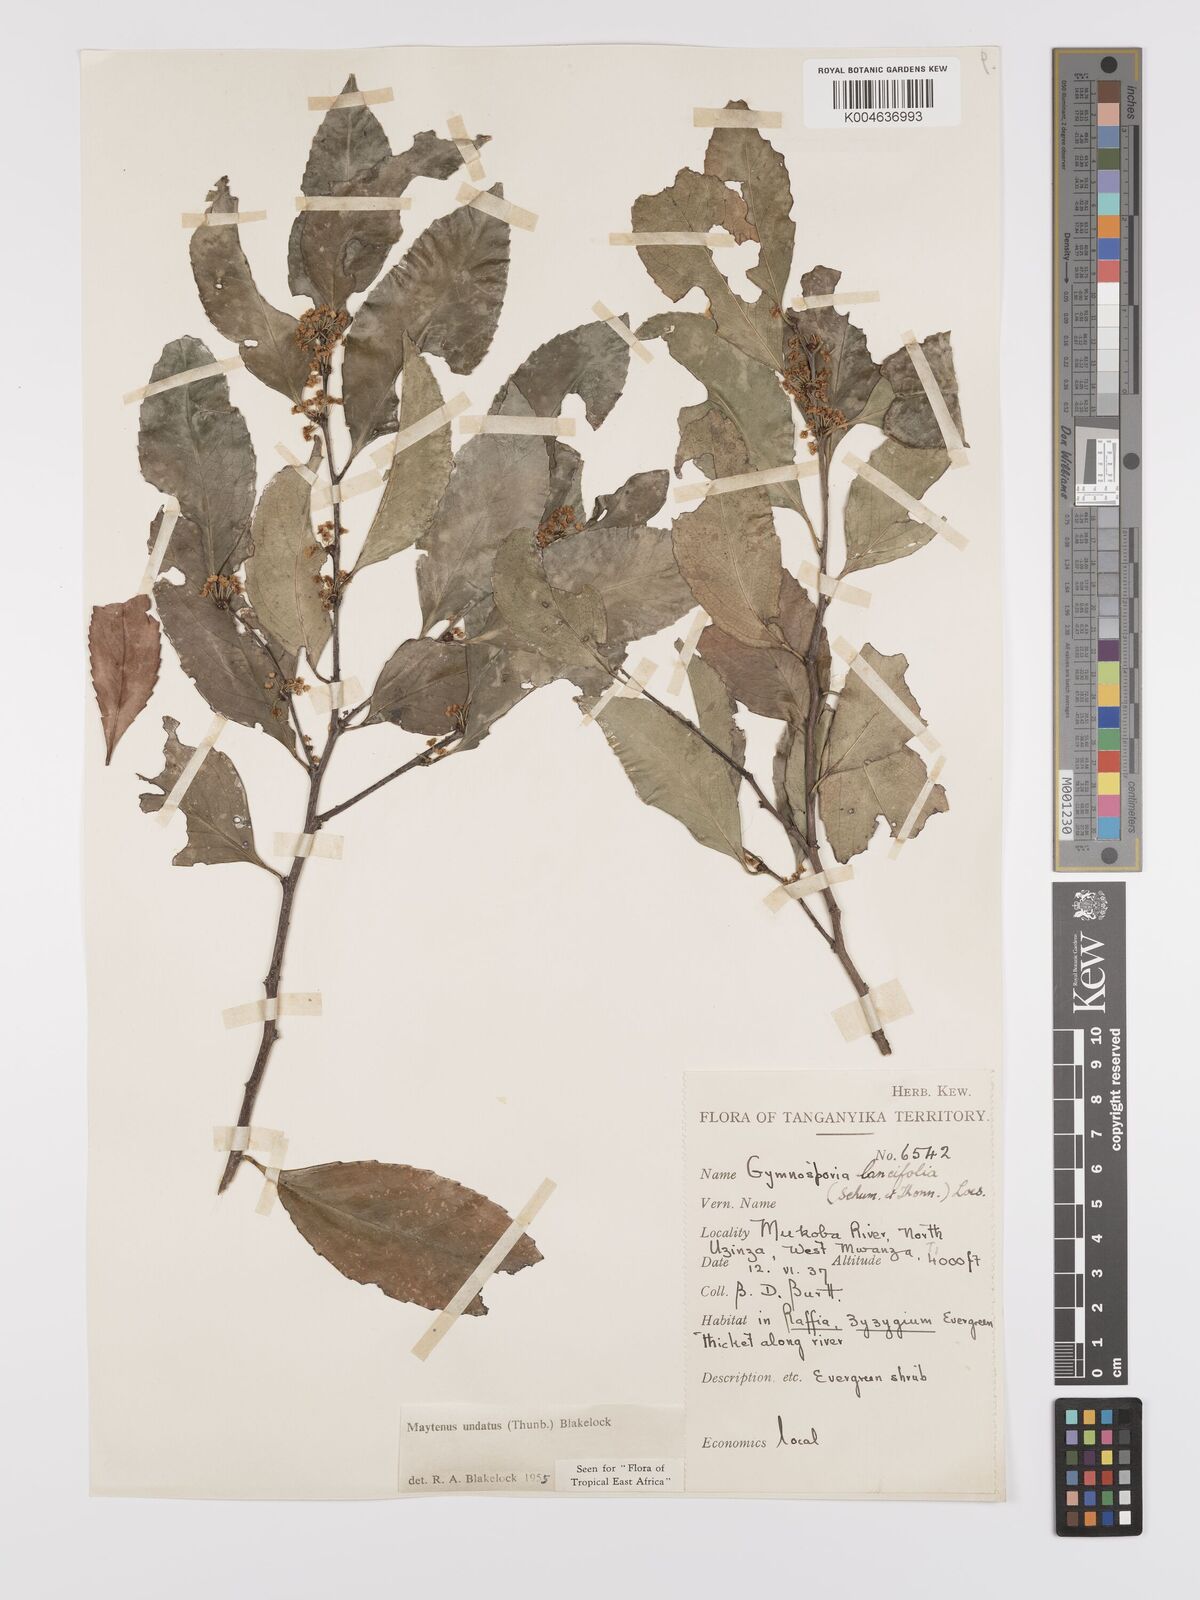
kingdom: Plantae
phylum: Tracheophyta
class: Magnoliopsida
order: Celastrales
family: Celastraceae
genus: Gymnosporia
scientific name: Gymnosporia undata
